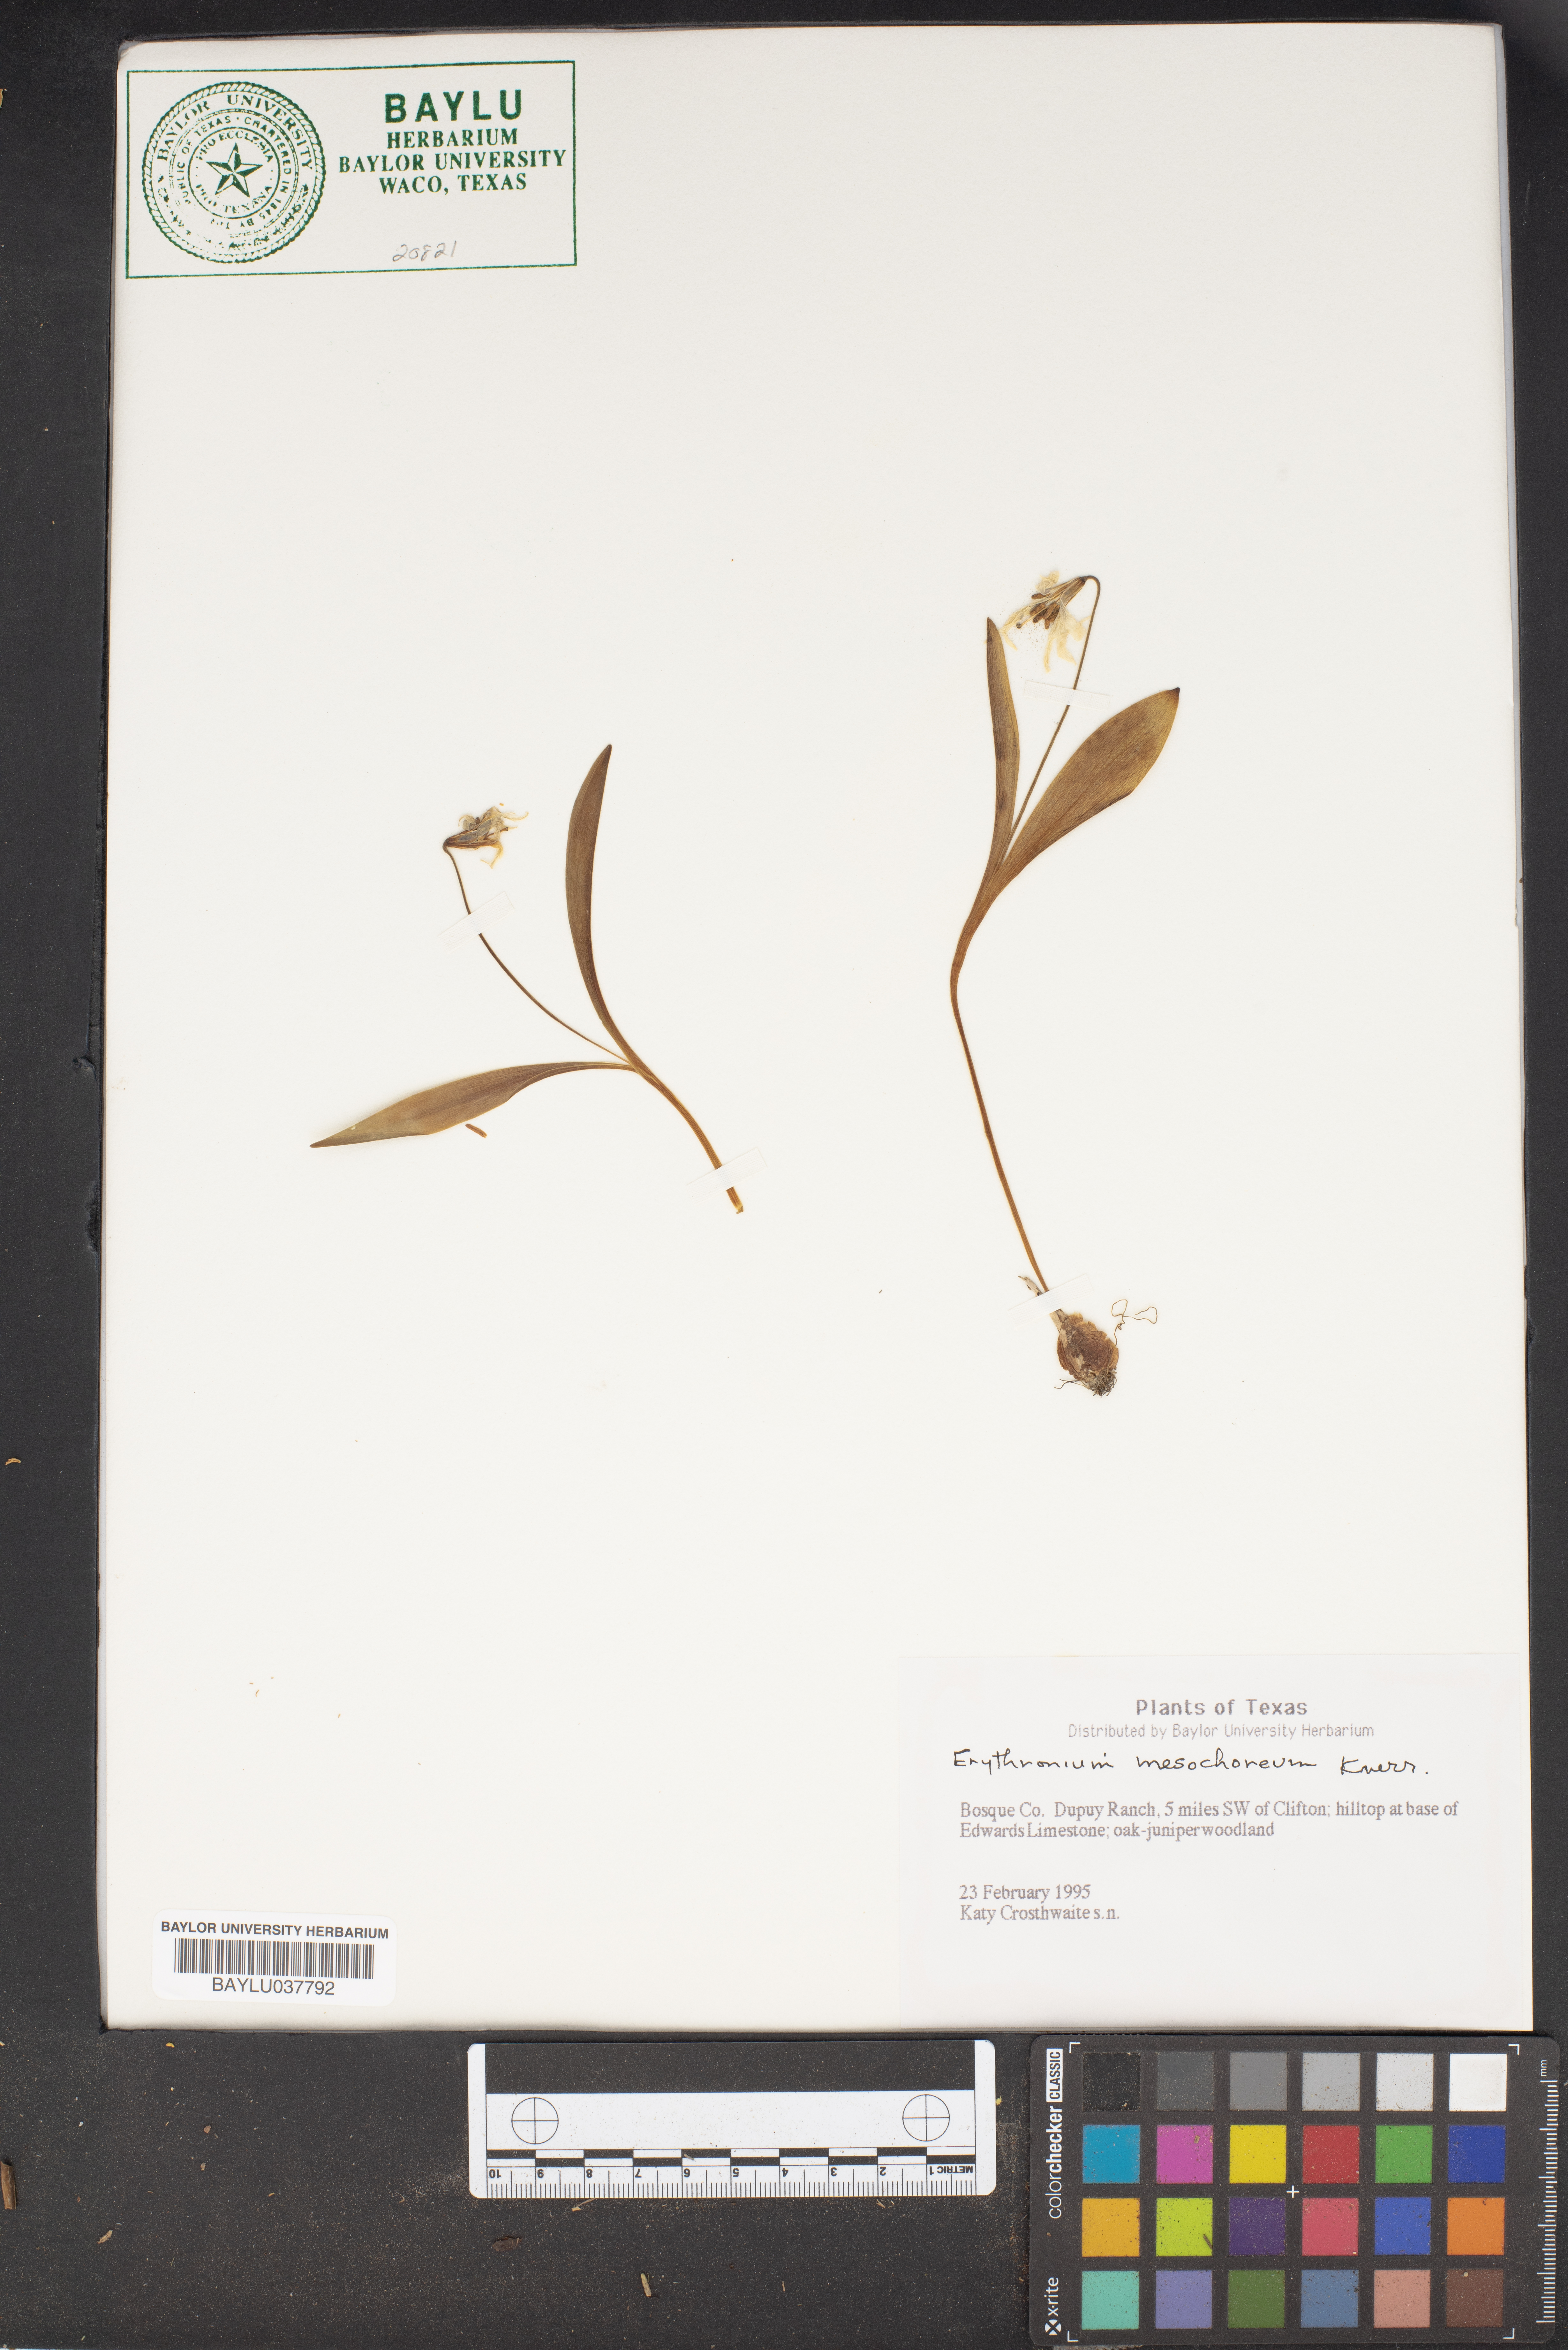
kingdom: Plantae
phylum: Tracheophyta
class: Liliopsida
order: Liliales
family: Liliaceae
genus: Erythronium
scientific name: Erythronium mesochoreum
